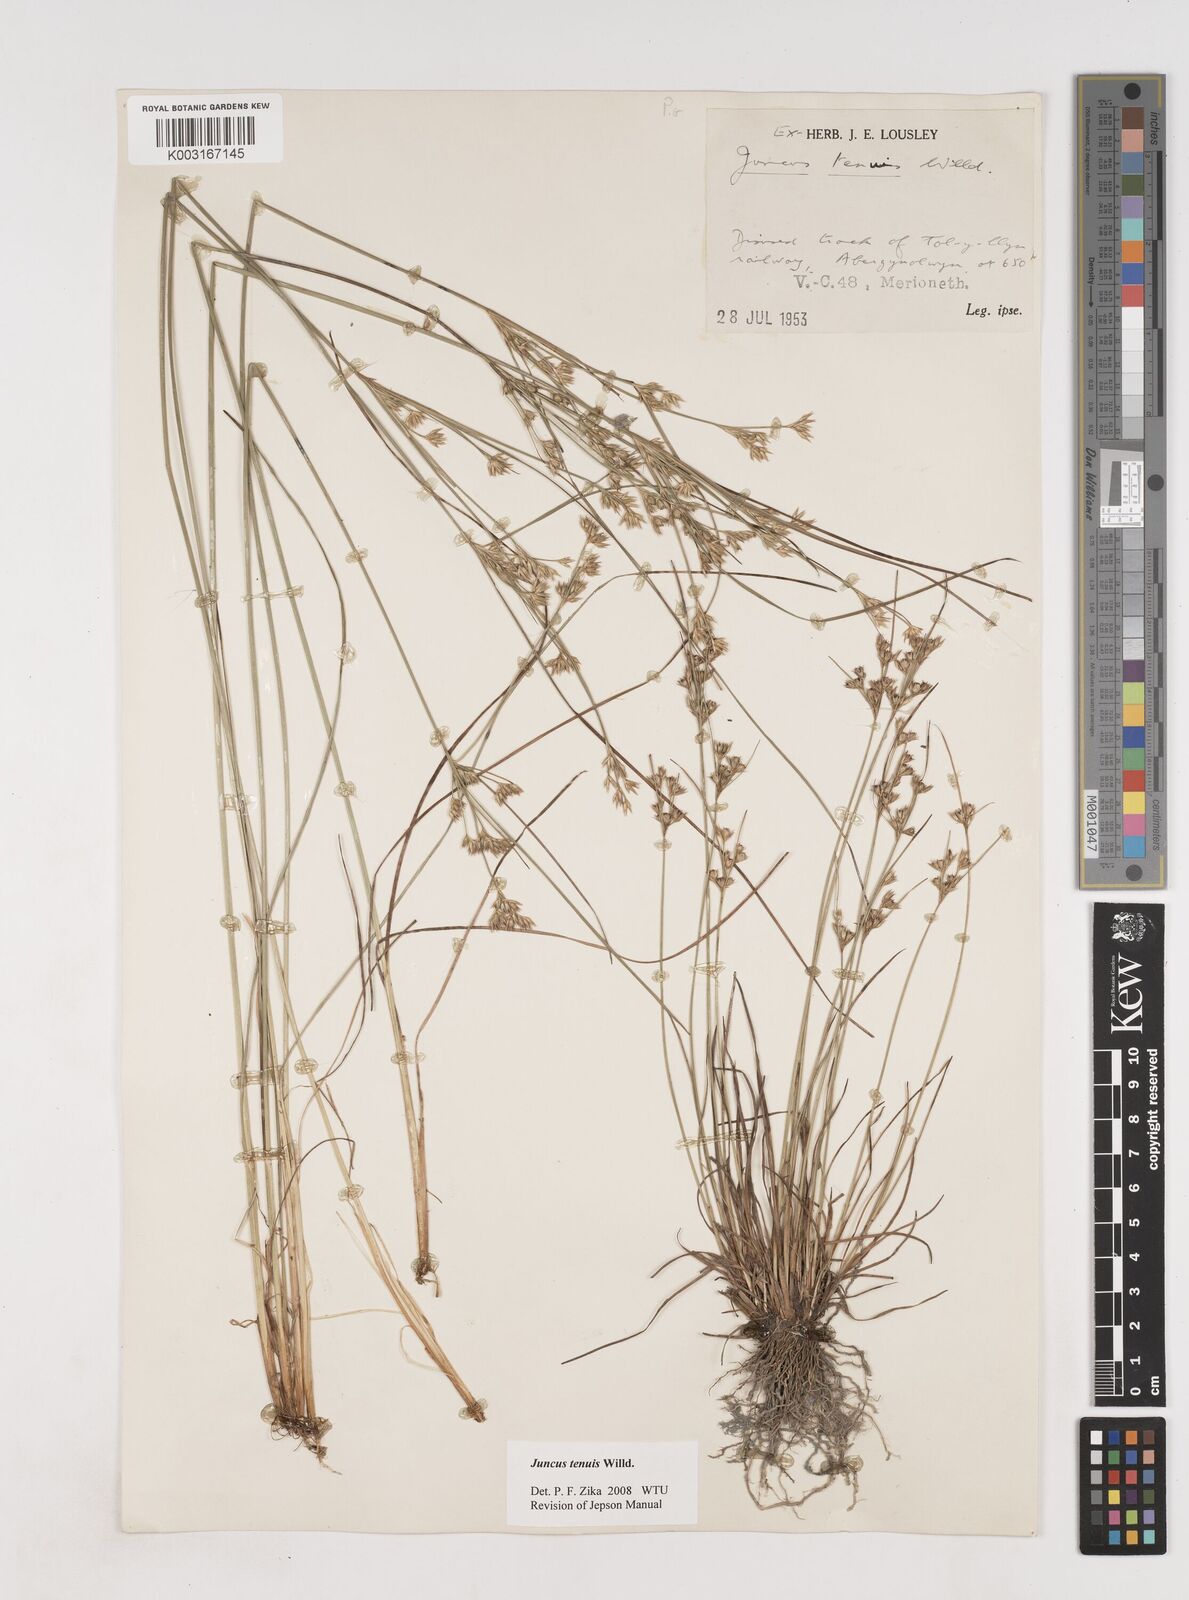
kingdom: Plantae
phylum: Tracheophyta
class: Liliopsida
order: Poales
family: Juncaceae
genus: Juncus
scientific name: Juncus tenuis
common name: Slender rush
